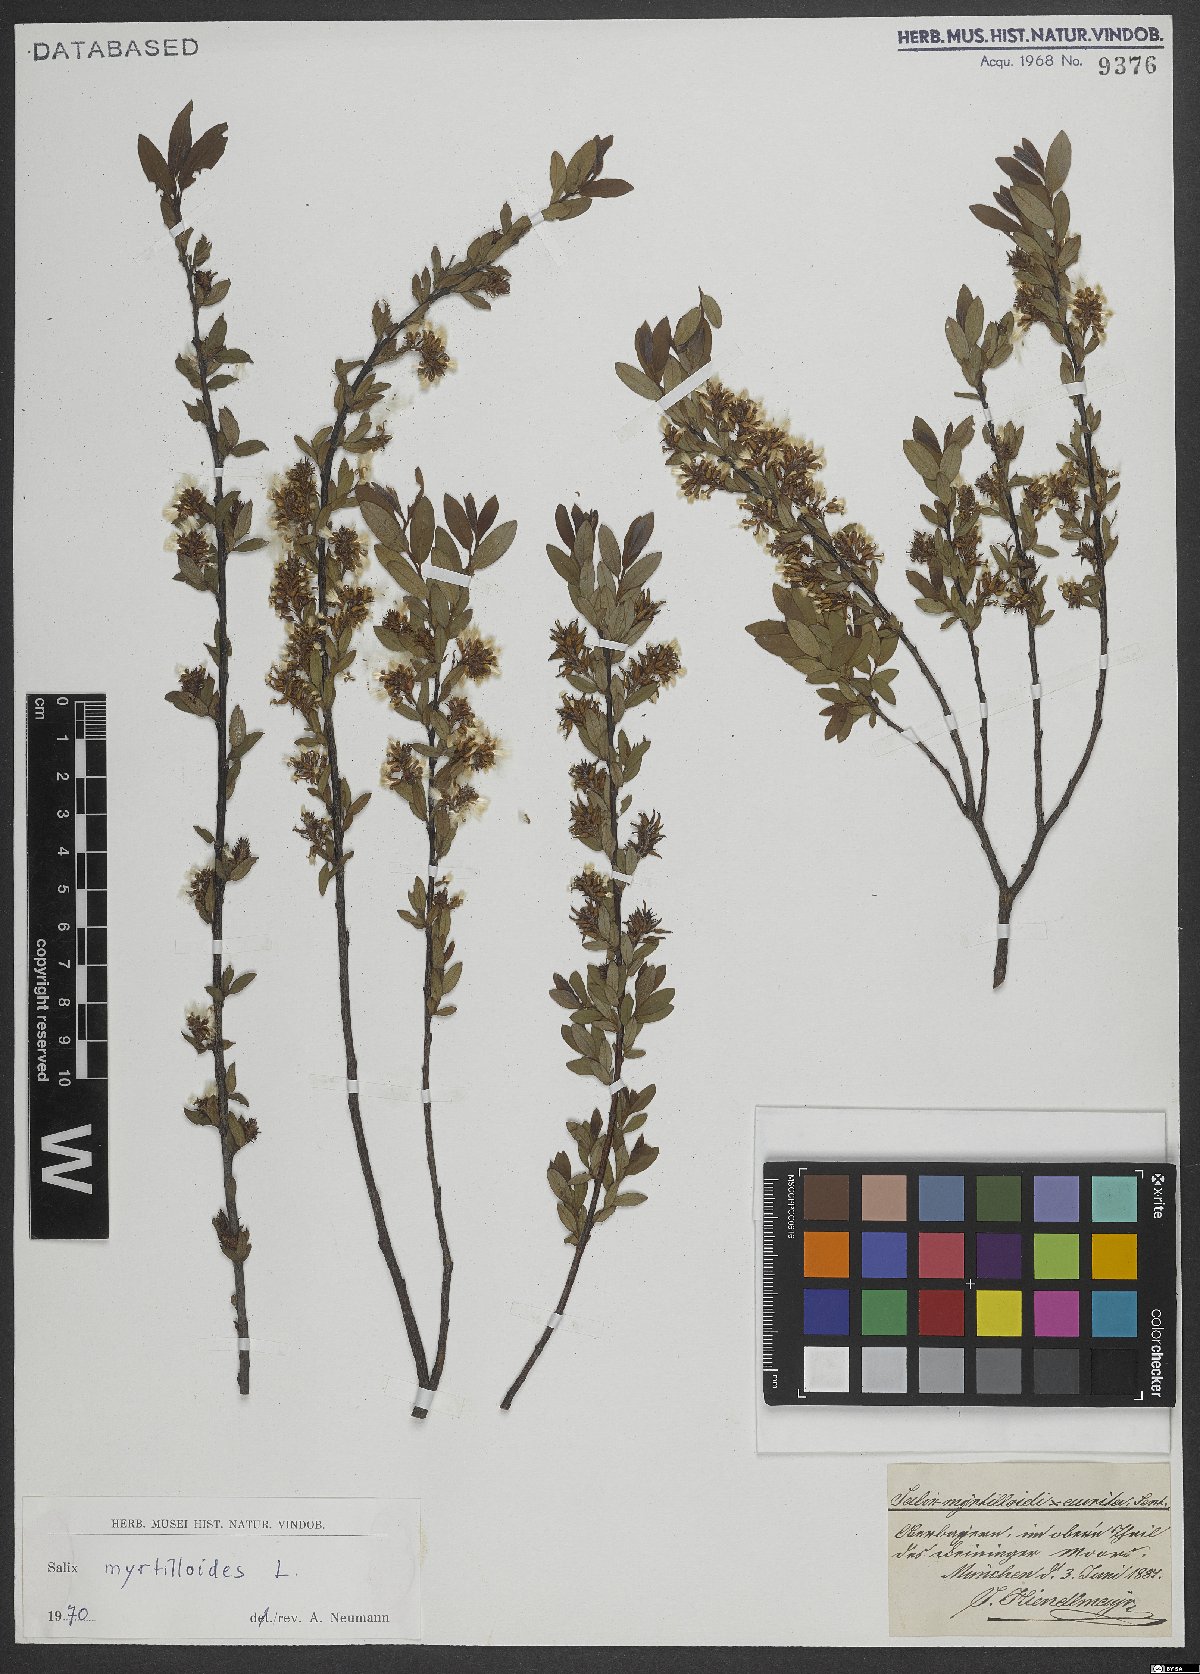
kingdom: Plantae
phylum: Tracheophyta
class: Magnoliopsida
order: Malpighiales
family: Salicaceae
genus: Salix
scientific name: Salix myrtilloides
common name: Myrtle-leaved willow
